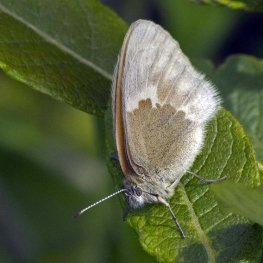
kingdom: Animalia
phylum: Arthropoda
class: Insecta
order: Lepidoptera
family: Nymphalidae
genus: Coenonympha
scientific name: Coenonympha tullia
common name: Large Heath
